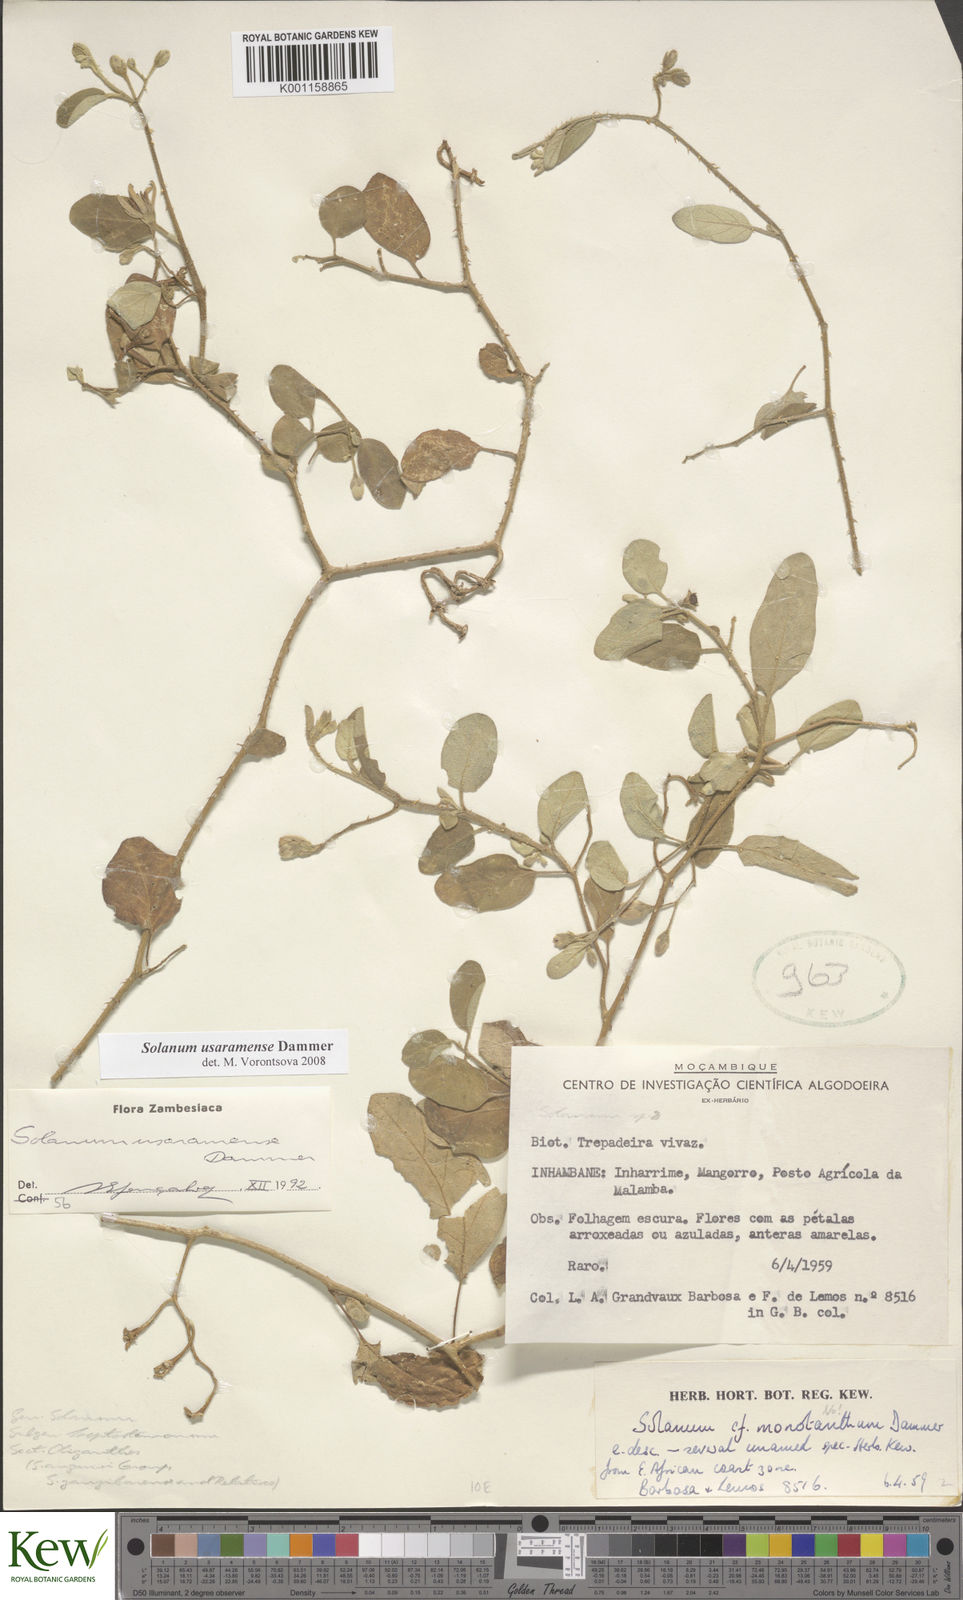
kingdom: Plantae
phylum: Tracheophyta
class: Magnoliopsida
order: Solanales
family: Solanaceae
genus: Solanum
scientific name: Solanum usaramense
